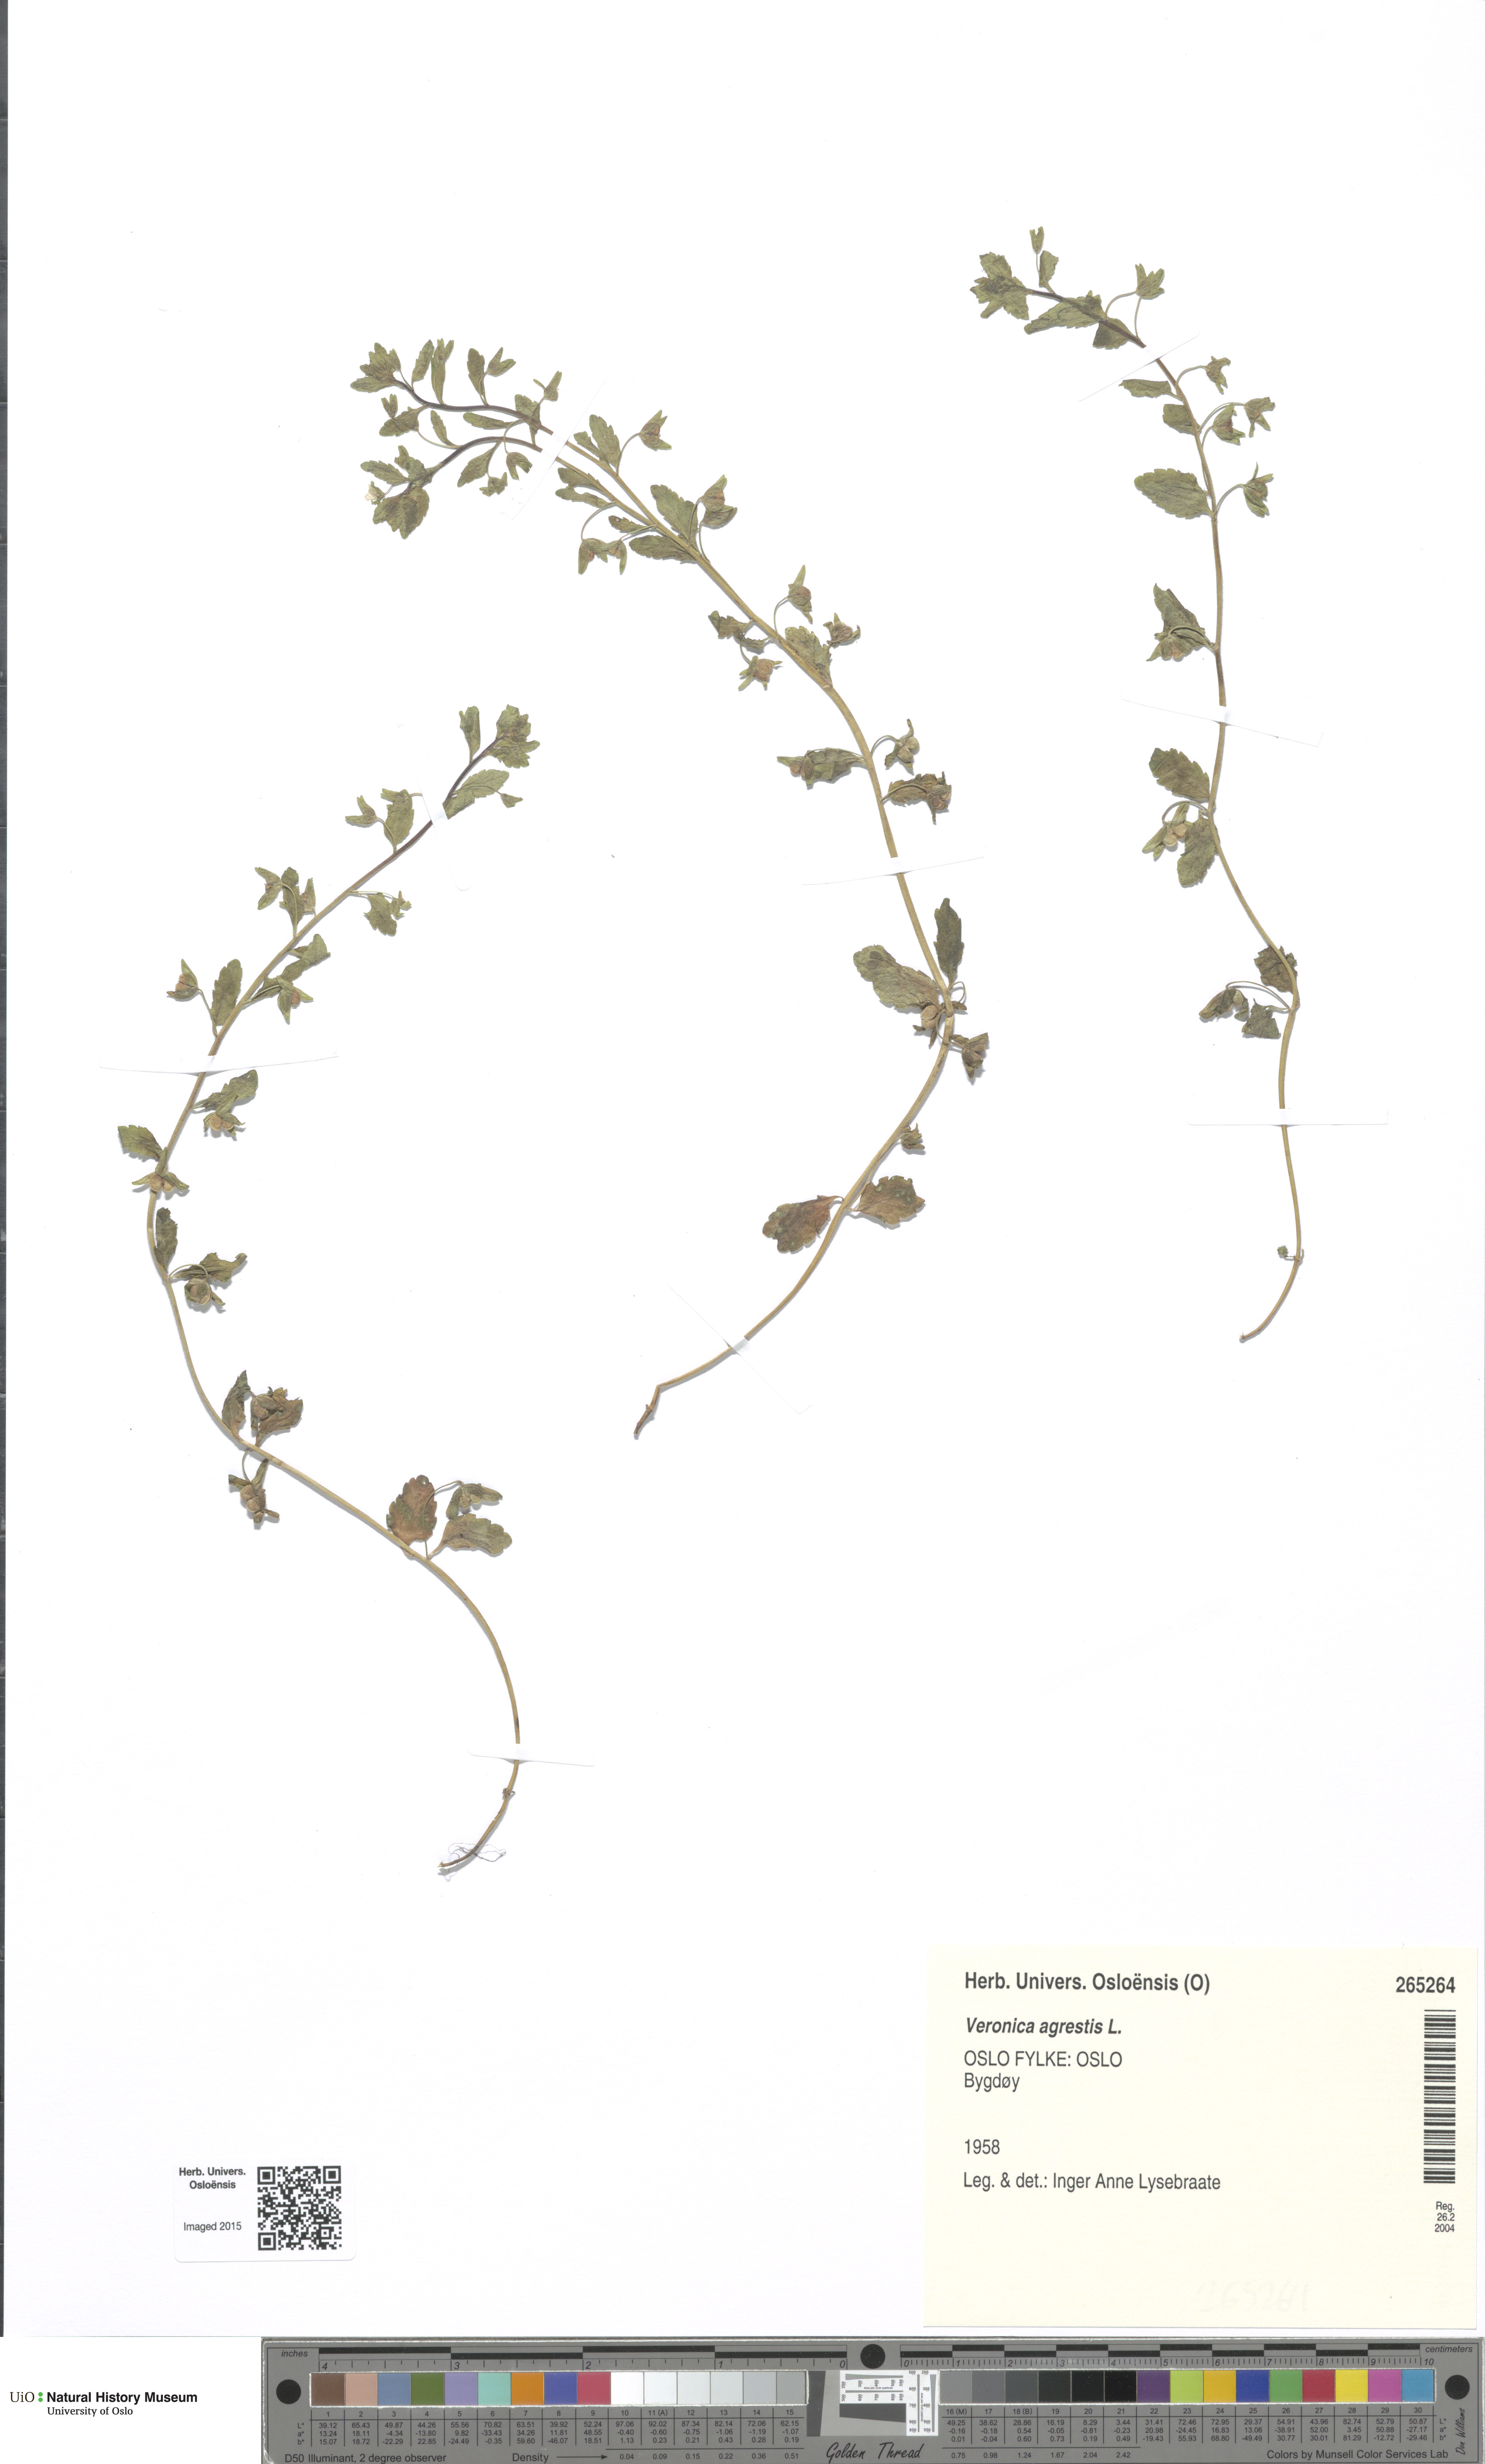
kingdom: Plantae
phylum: Tracheophyta
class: Magnoliopsida
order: Lamiales
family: Plantaginaceae
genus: Veronica
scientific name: Veronica agrestis
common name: Green field-speedwell
